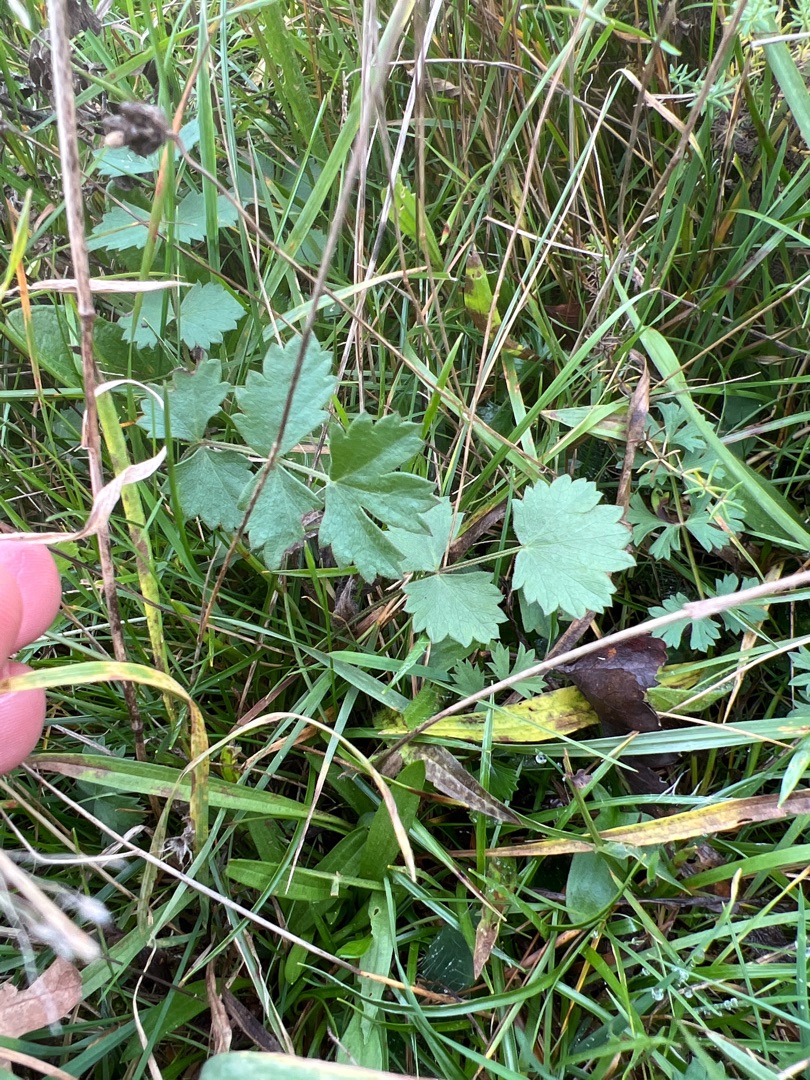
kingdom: Plantae
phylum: Tracheophyta
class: Magnoliopsida
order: Apiales
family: Apiaceae
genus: Pimpinella
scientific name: Pimpinella saxifraga
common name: Almindelig pimpinelle
